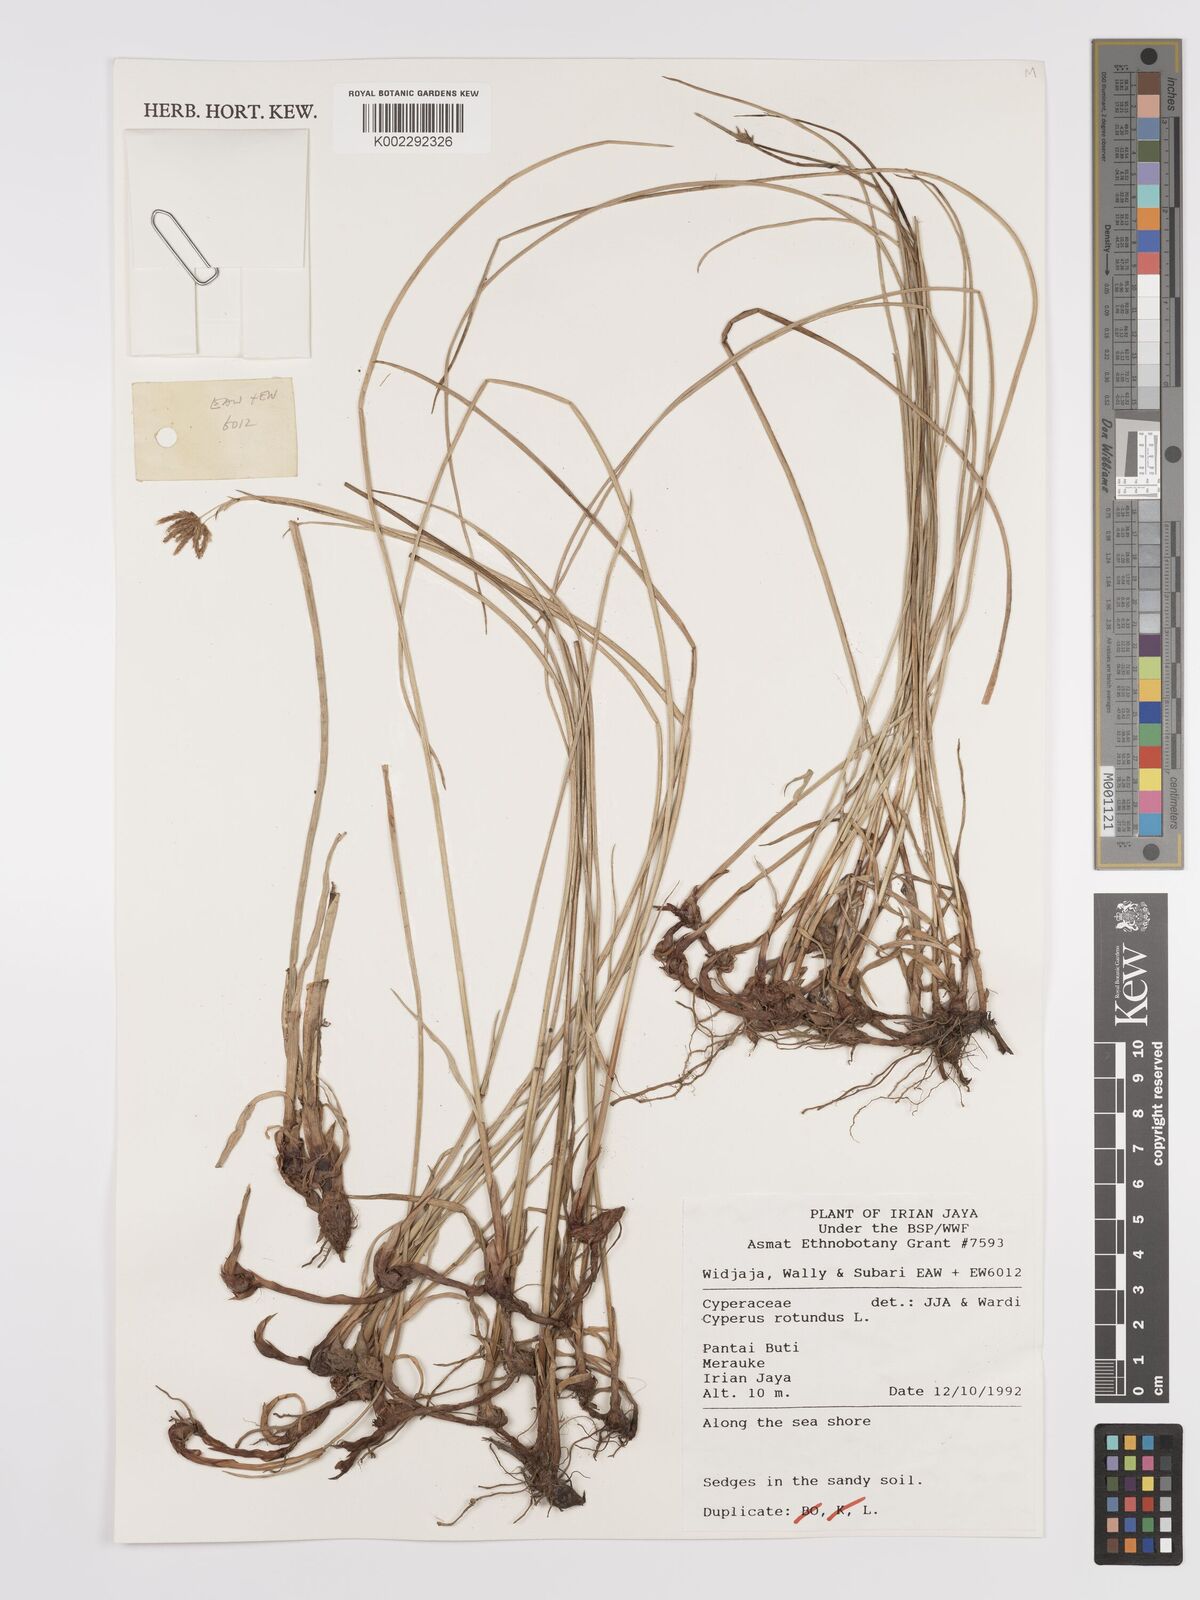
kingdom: Plantae
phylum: Tracheophyta
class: Liliopsida
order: Poales
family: Cyperaceae
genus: Cyperus
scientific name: Cyperus rotundus
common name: Nutgrass
